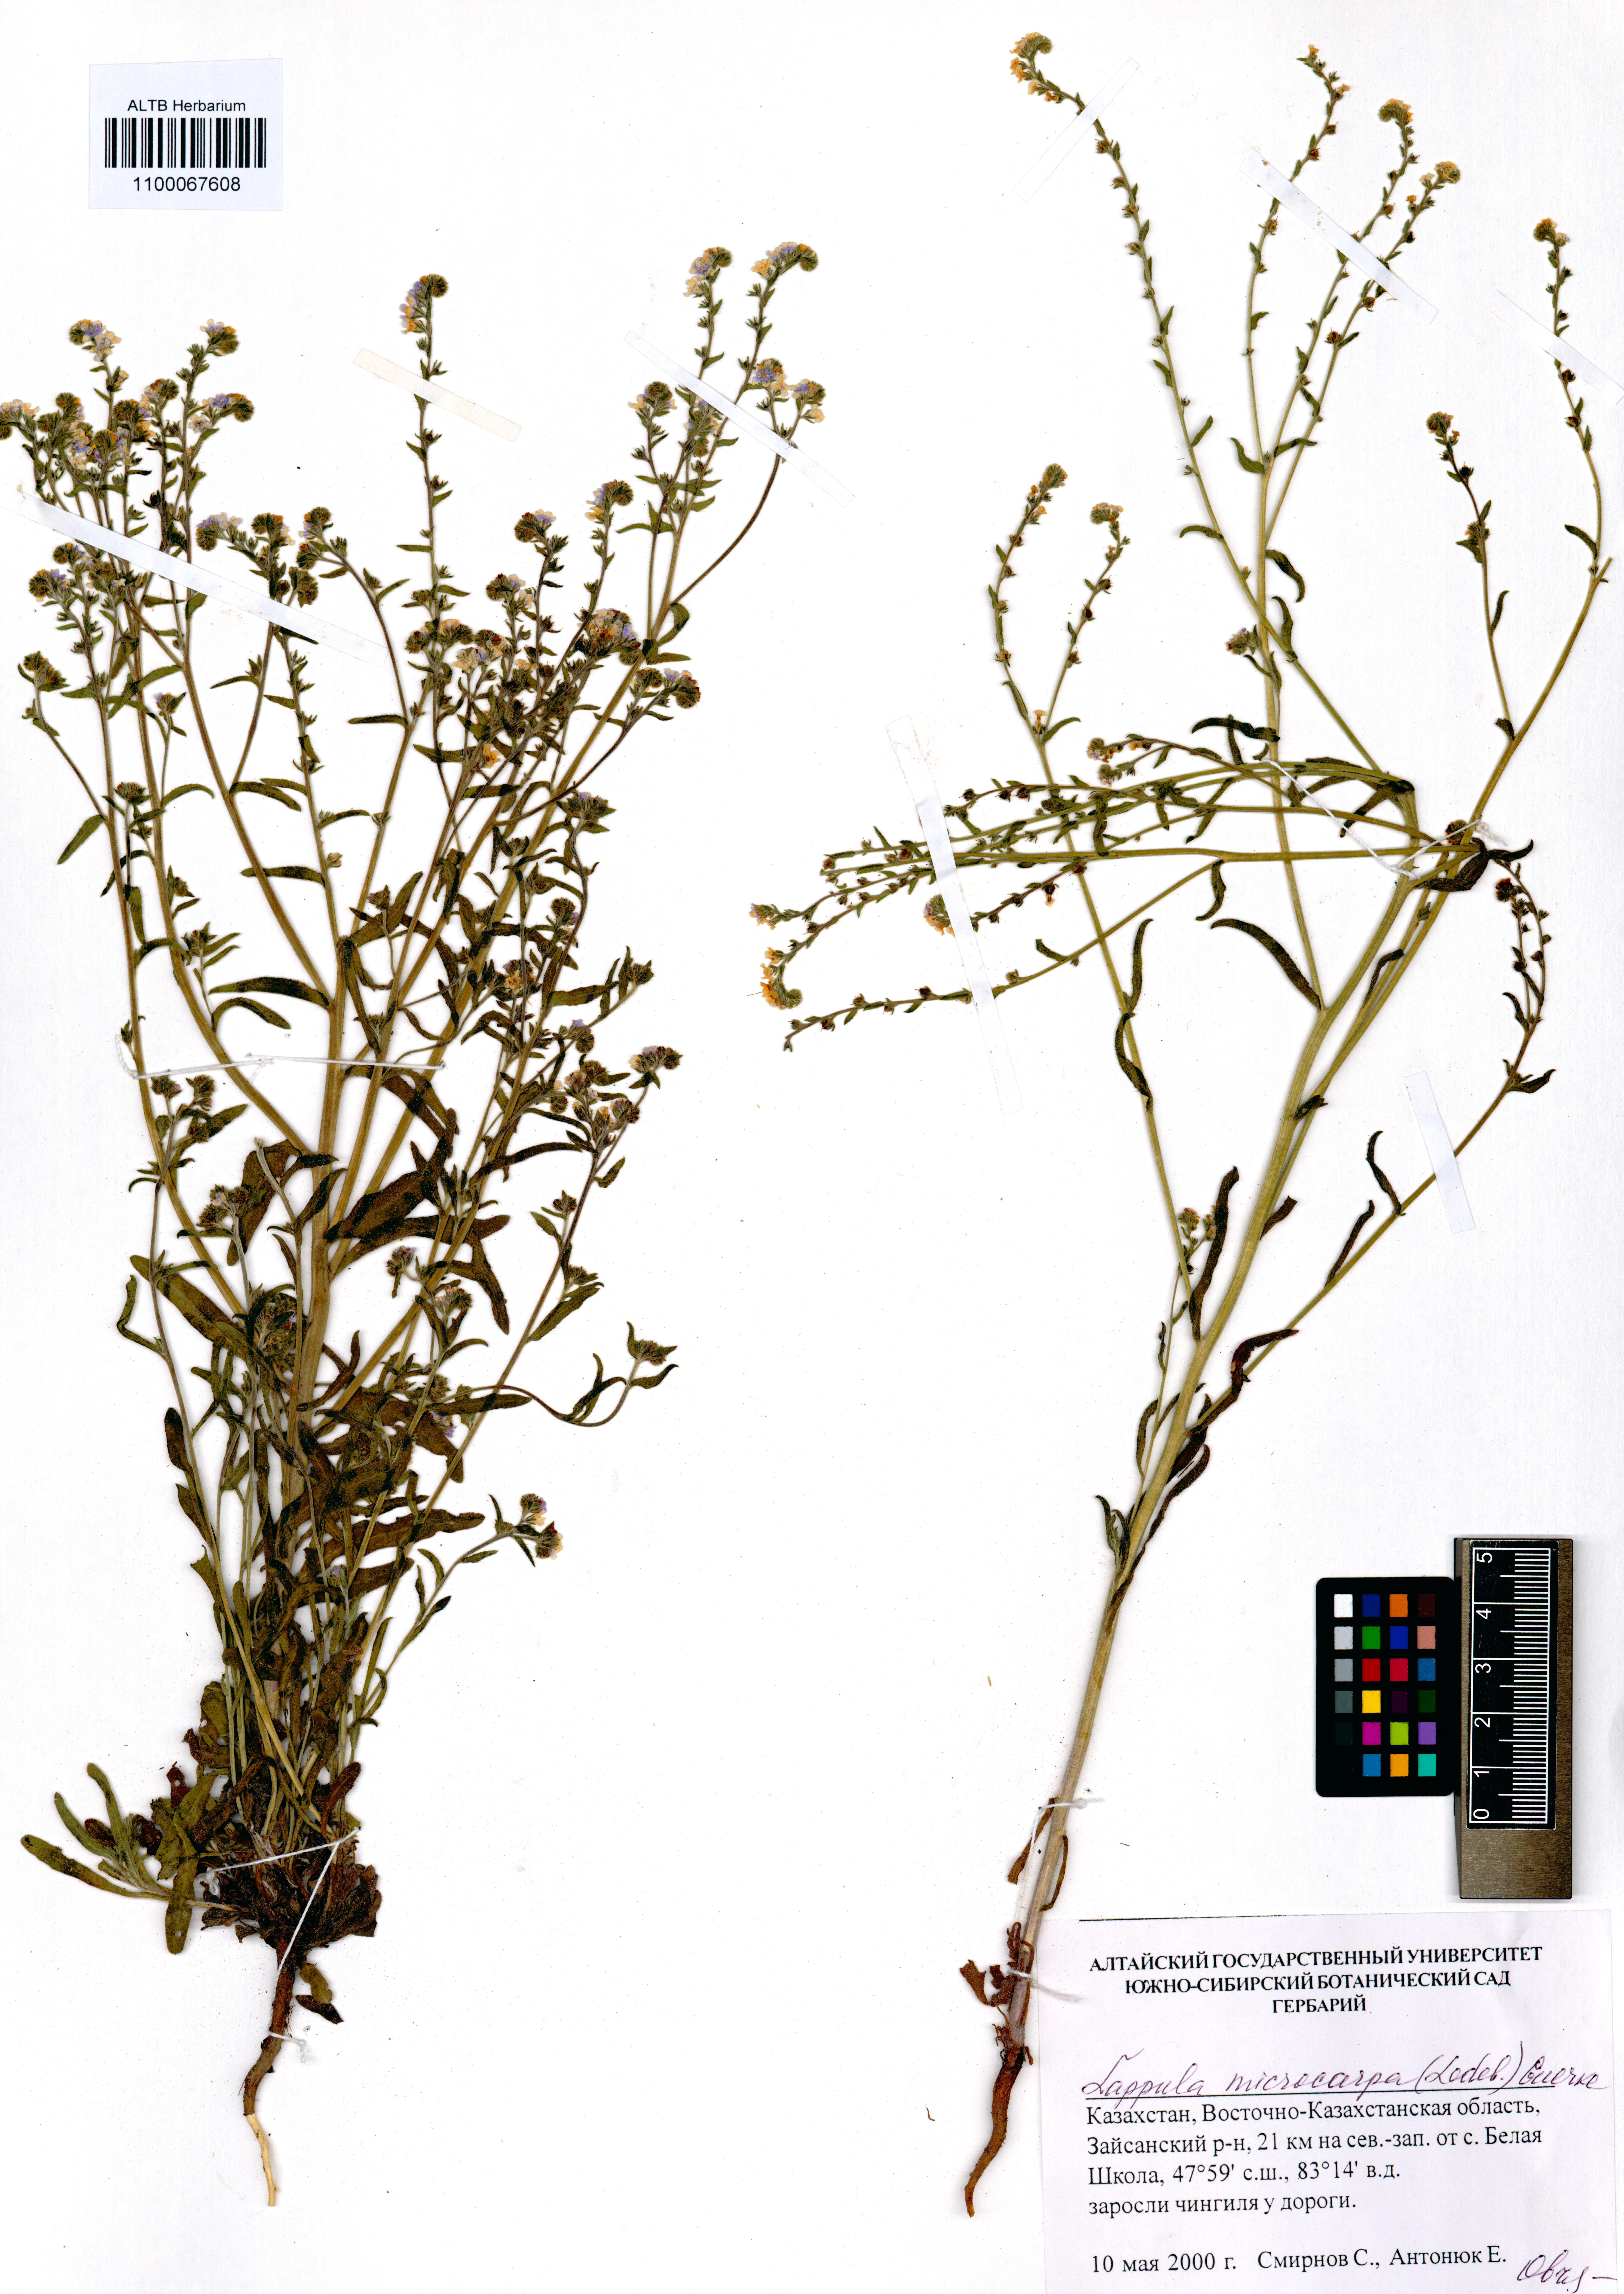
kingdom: Plantae
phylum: Tracheophyta
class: Magnoliopsida
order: Boraginales
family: Boraginaceae
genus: Lappula
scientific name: Lappula microcarpa
